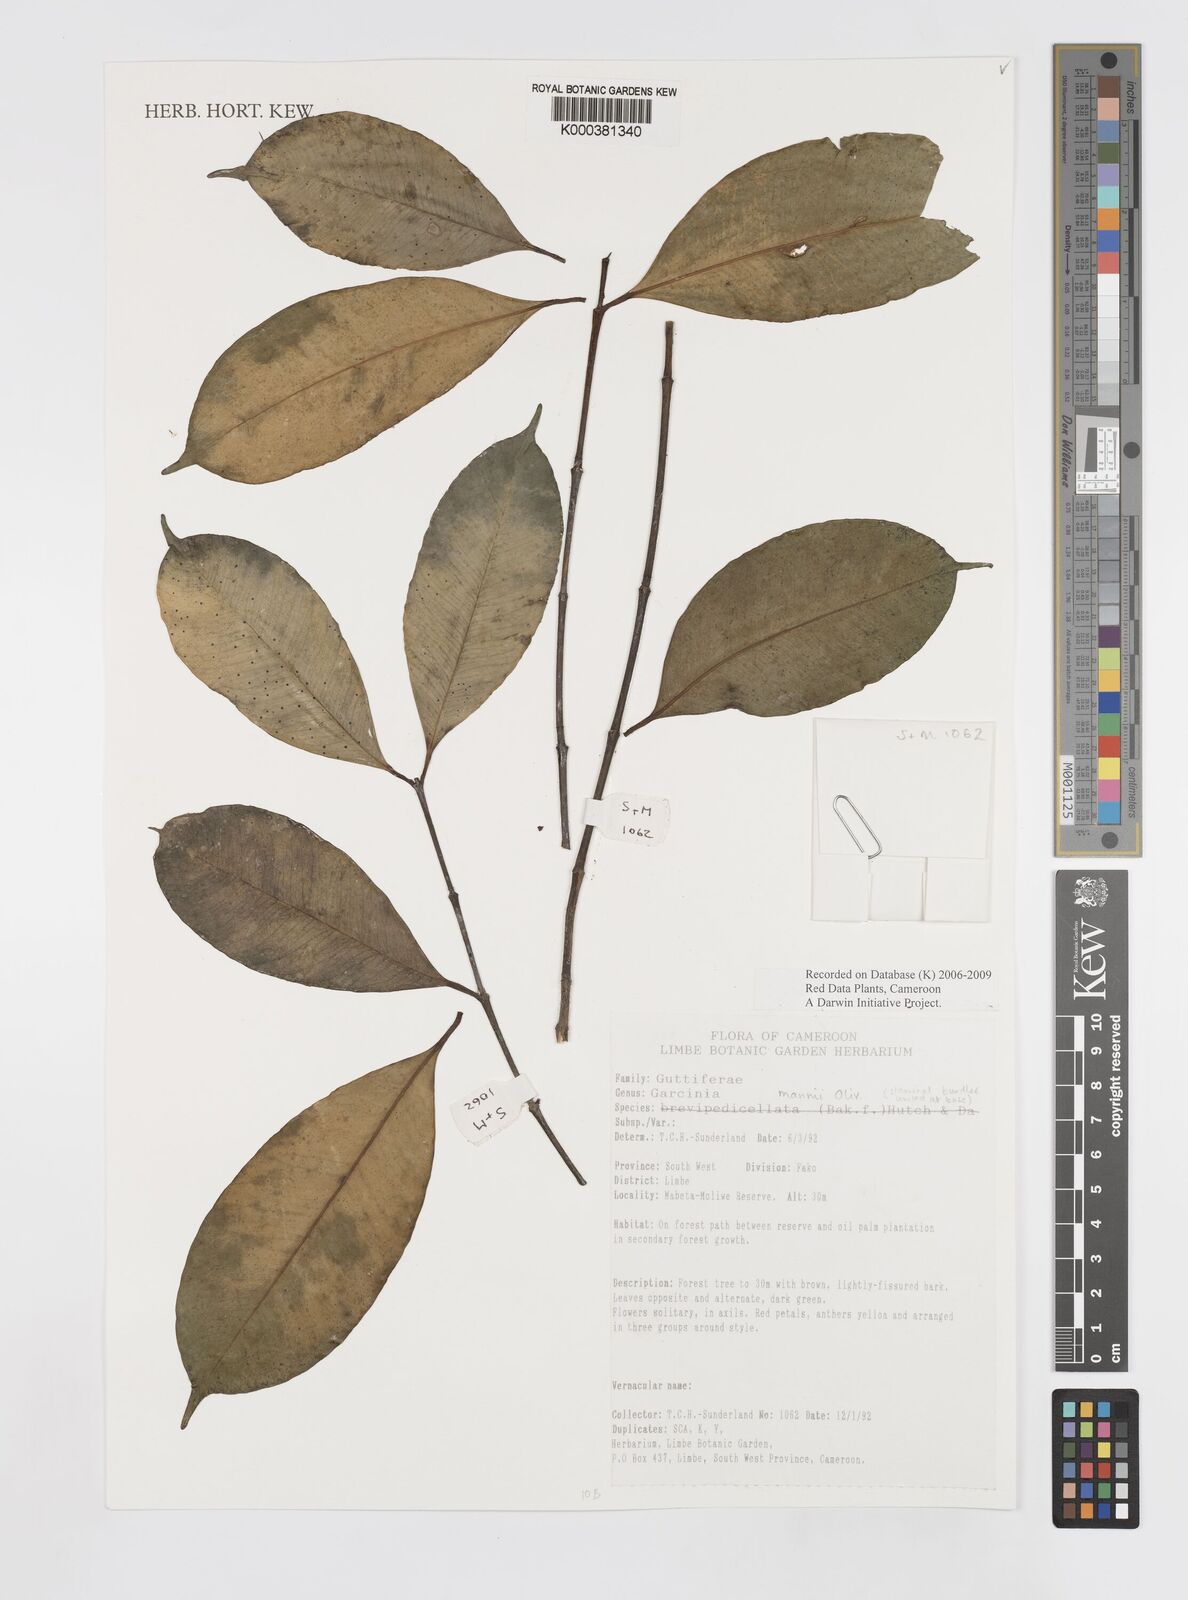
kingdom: Plantae
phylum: Tracheophyta
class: Magnoliopsida
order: Malpighiales
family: Clusiaceae
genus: Garcinia
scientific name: Garcinia mannii
